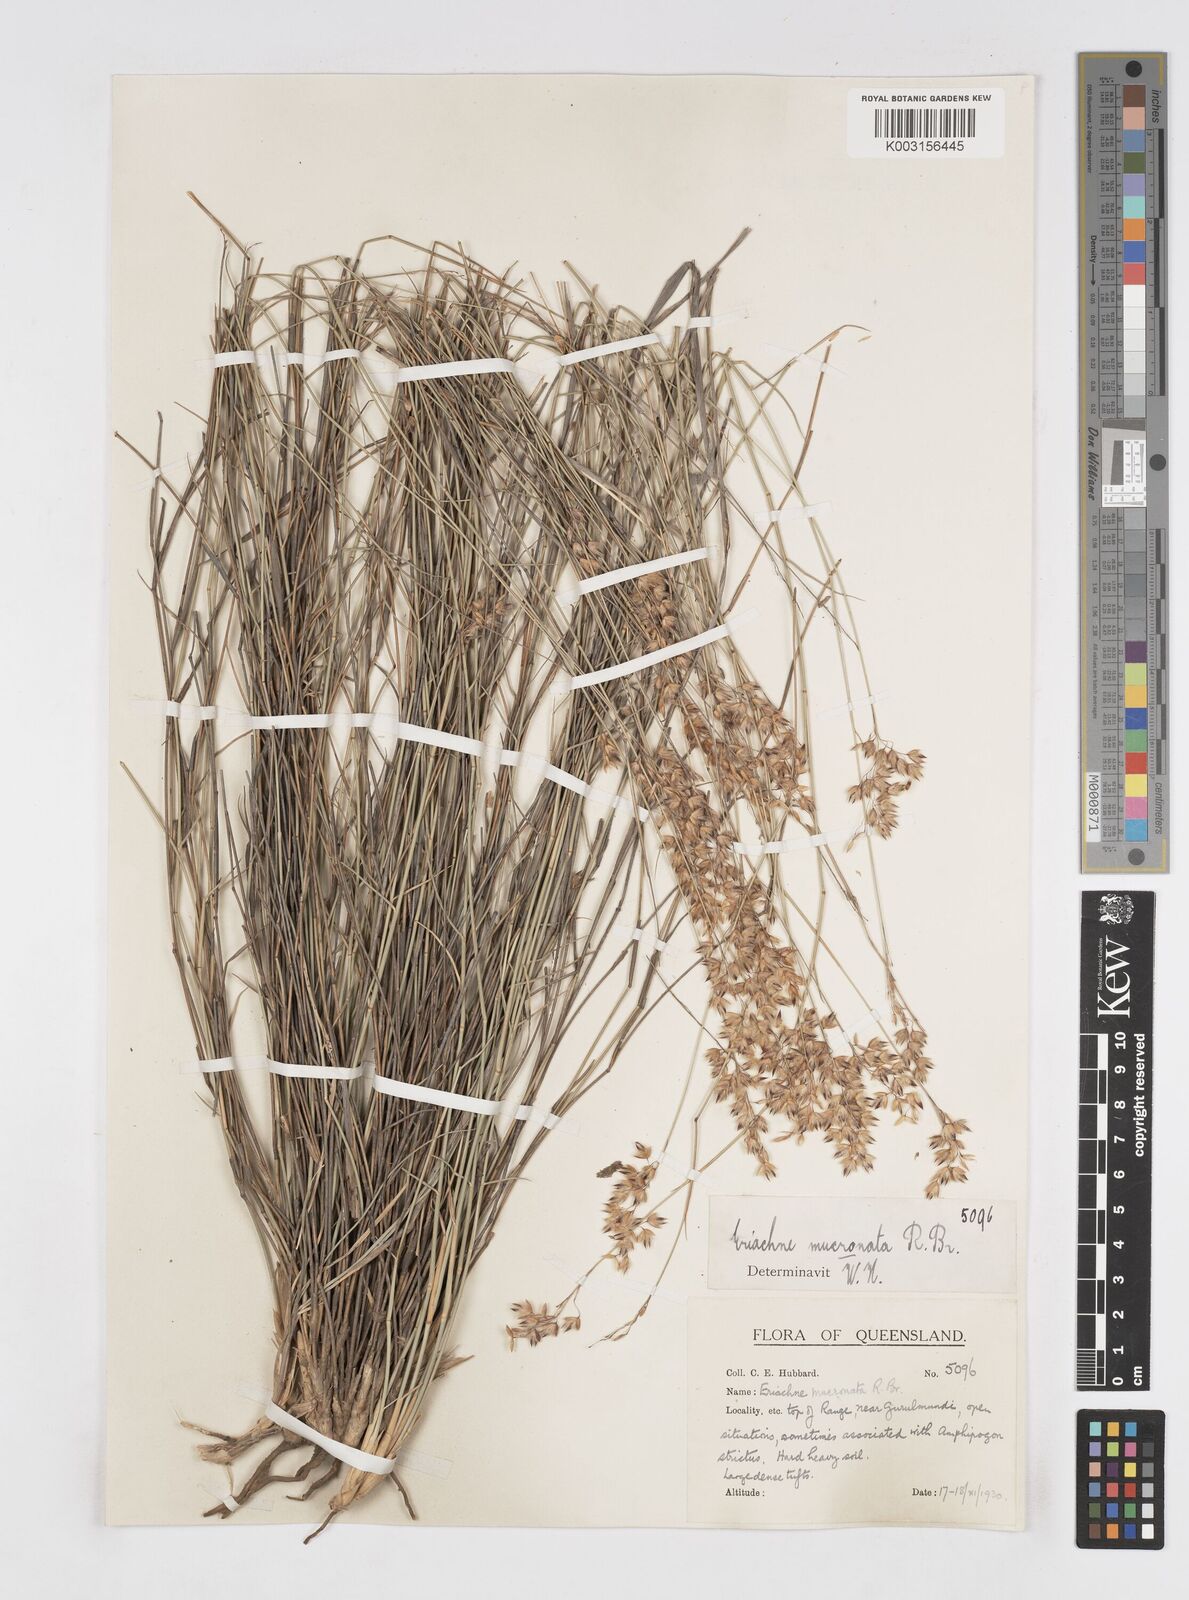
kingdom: Plantae
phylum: Tracheophyta
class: Liliopsida
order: Poales
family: Poaceae
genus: Eriachne
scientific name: Eriachne mucronata
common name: Mountain wanderrie grass
